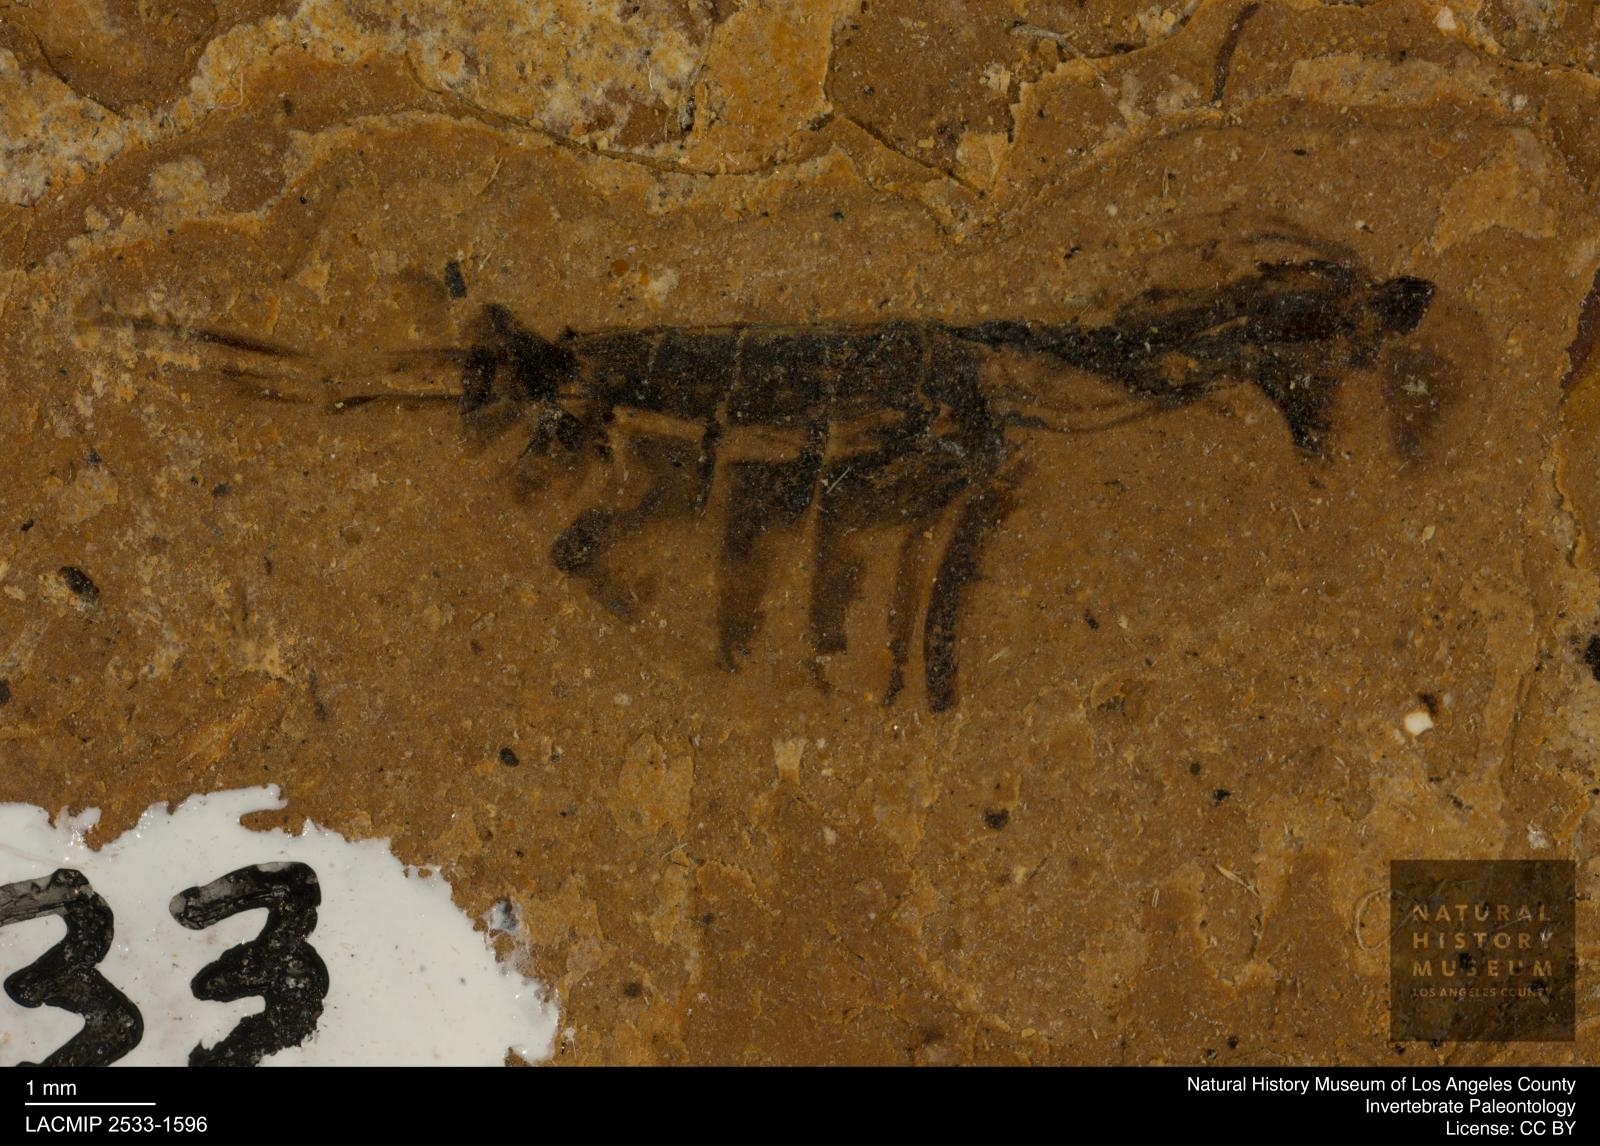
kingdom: Animalia
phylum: Arthropoda
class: Insecta
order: Hemiptera
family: Notonectidae
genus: Notonecta
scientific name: Notonecta
